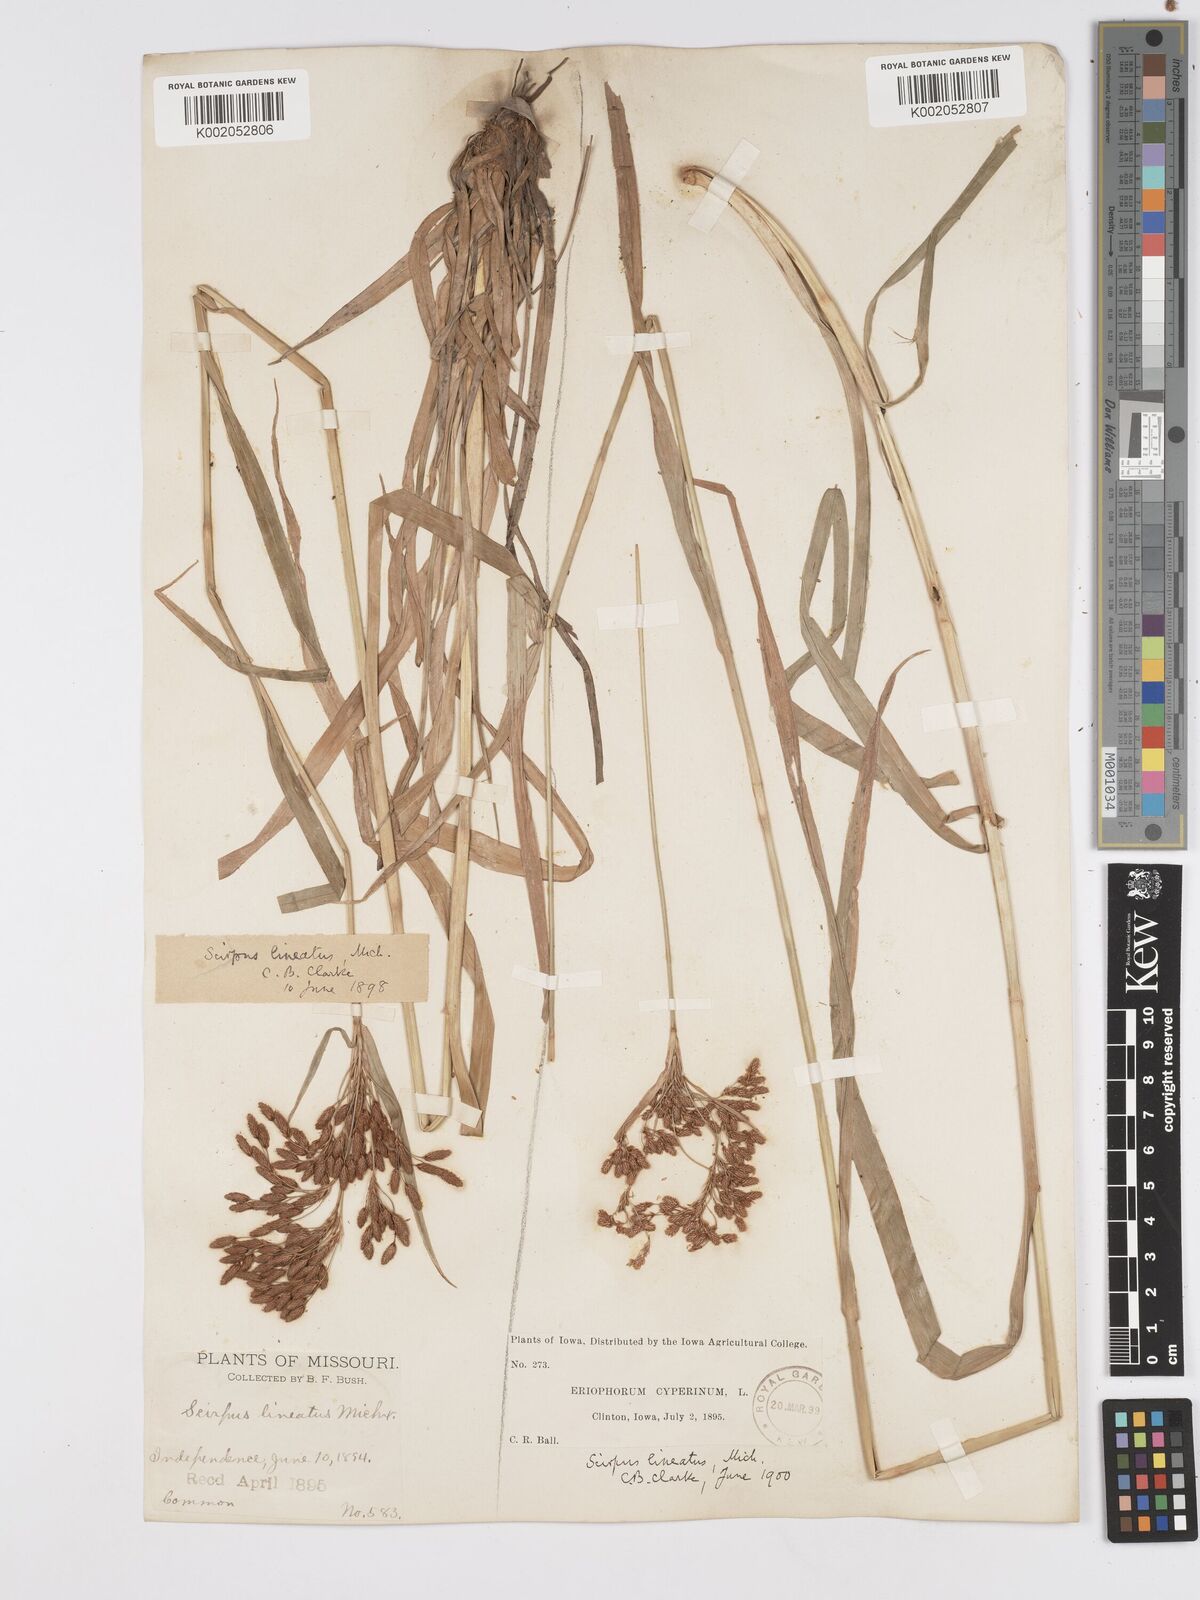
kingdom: Plantae
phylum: Tracheophyta
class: Liliopsida
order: Poales
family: Cyperaceae
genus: Scirpus
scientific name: Scirpus lineatus
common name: Drooping bulrush
